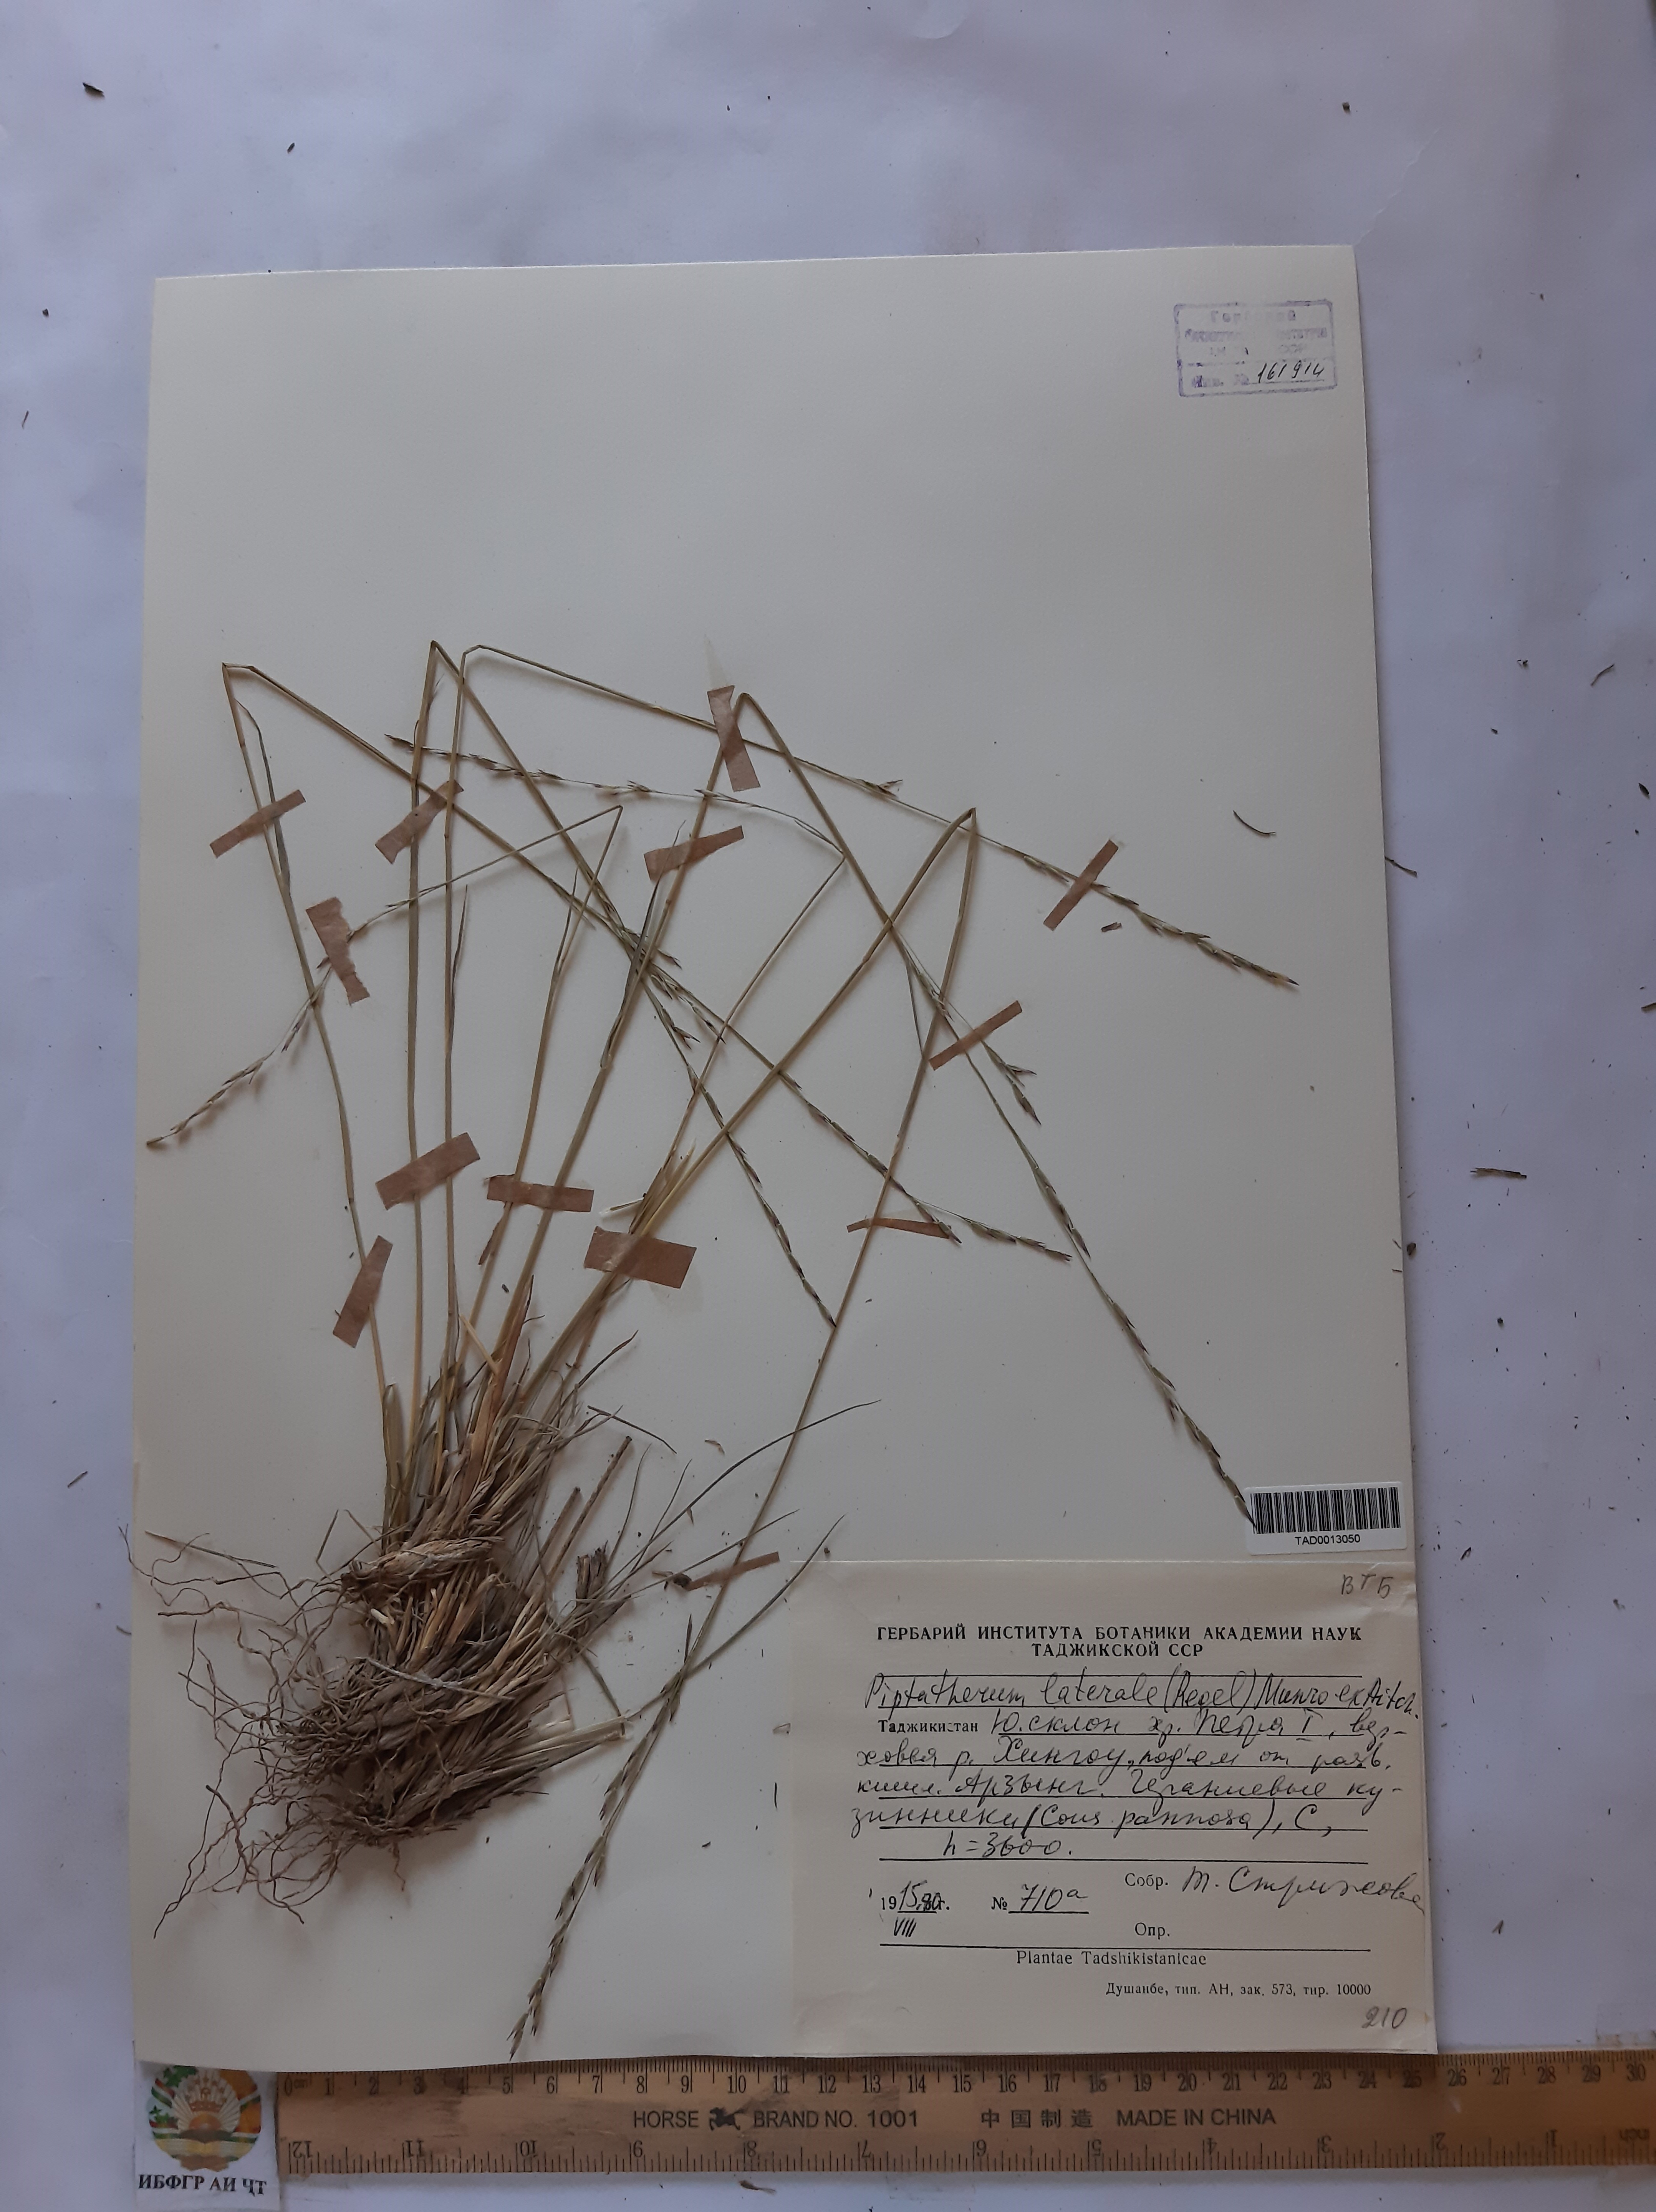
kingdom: Plantae
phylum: Tracheophyta
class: Liliopsida
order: Poales
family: Poaceae
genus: Piptatherum
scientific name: Piptatherum laterale
